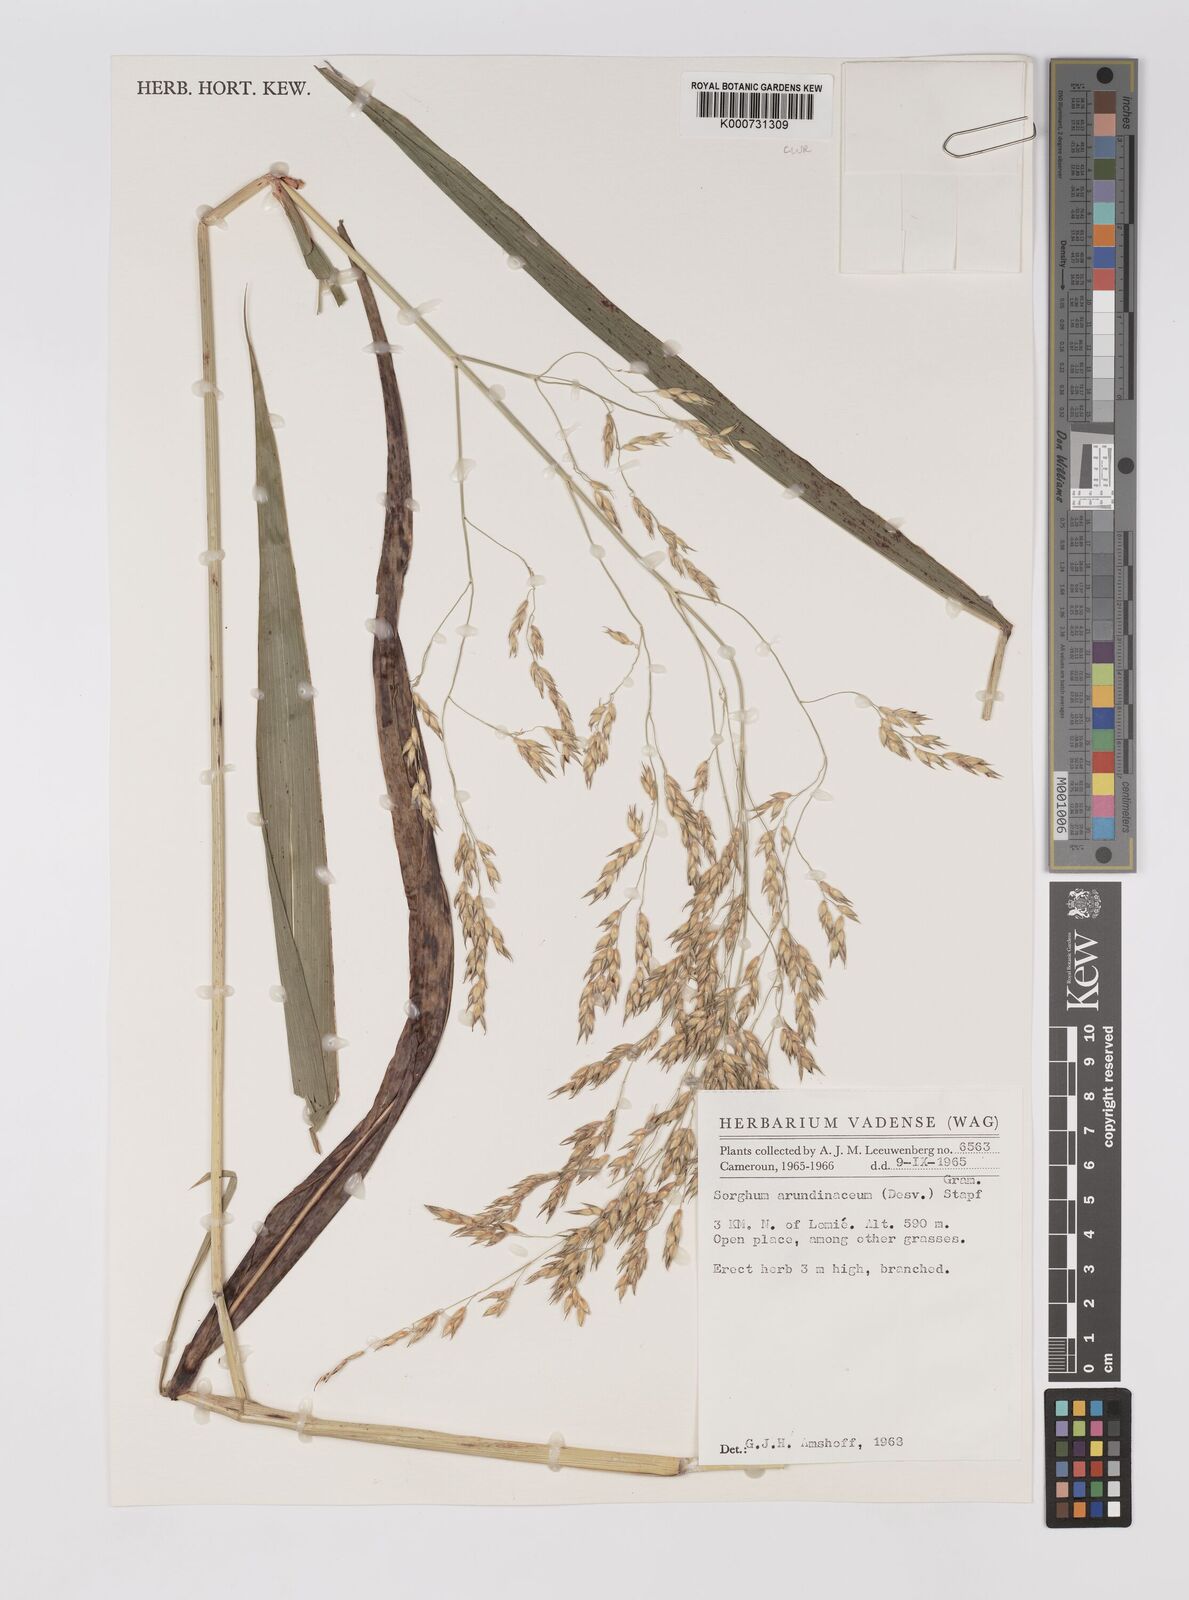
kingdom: Plantae
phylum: Tracheophyta
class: Liliopsida
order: Poales
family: Poaceae
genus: Sorghum
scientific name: Sorghum arundinaceum
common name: Sorghum
